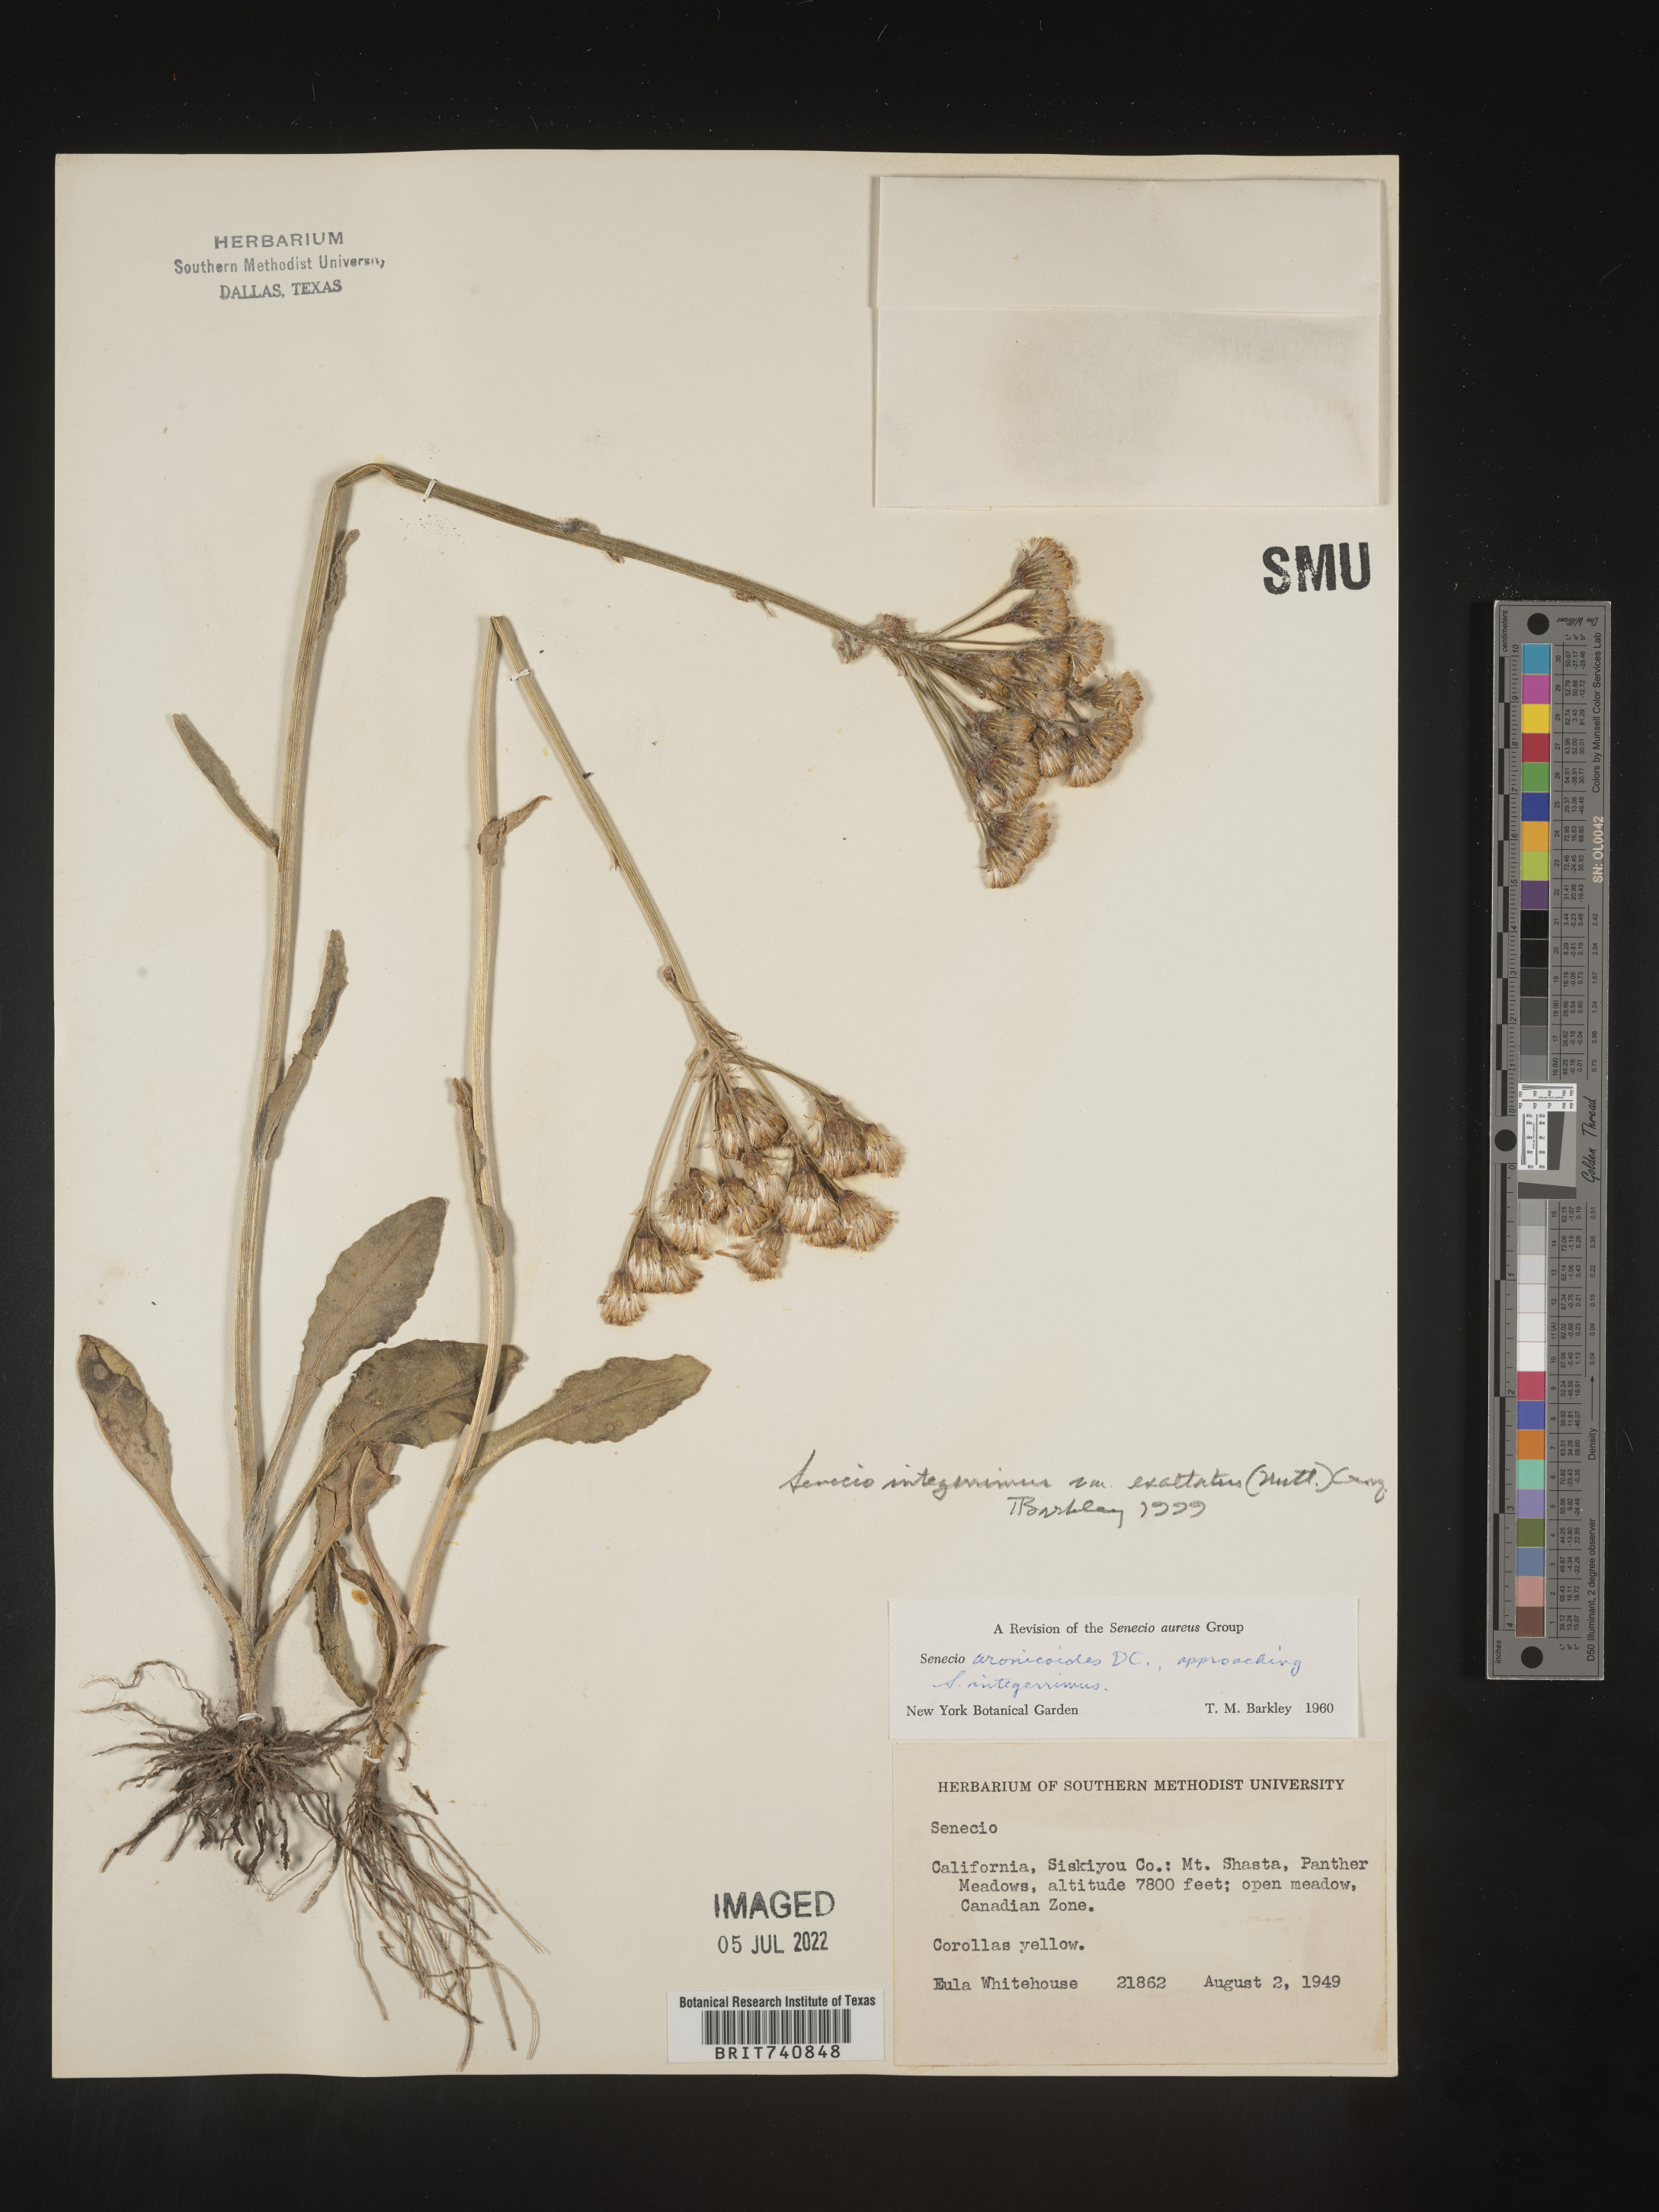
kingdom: Plantae
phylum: Tracheophyta
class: Magnoliopsida
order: Asterales
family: Asteraceae
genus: Senecio
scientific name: Senecio integerrimus
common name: Gaugeplant
